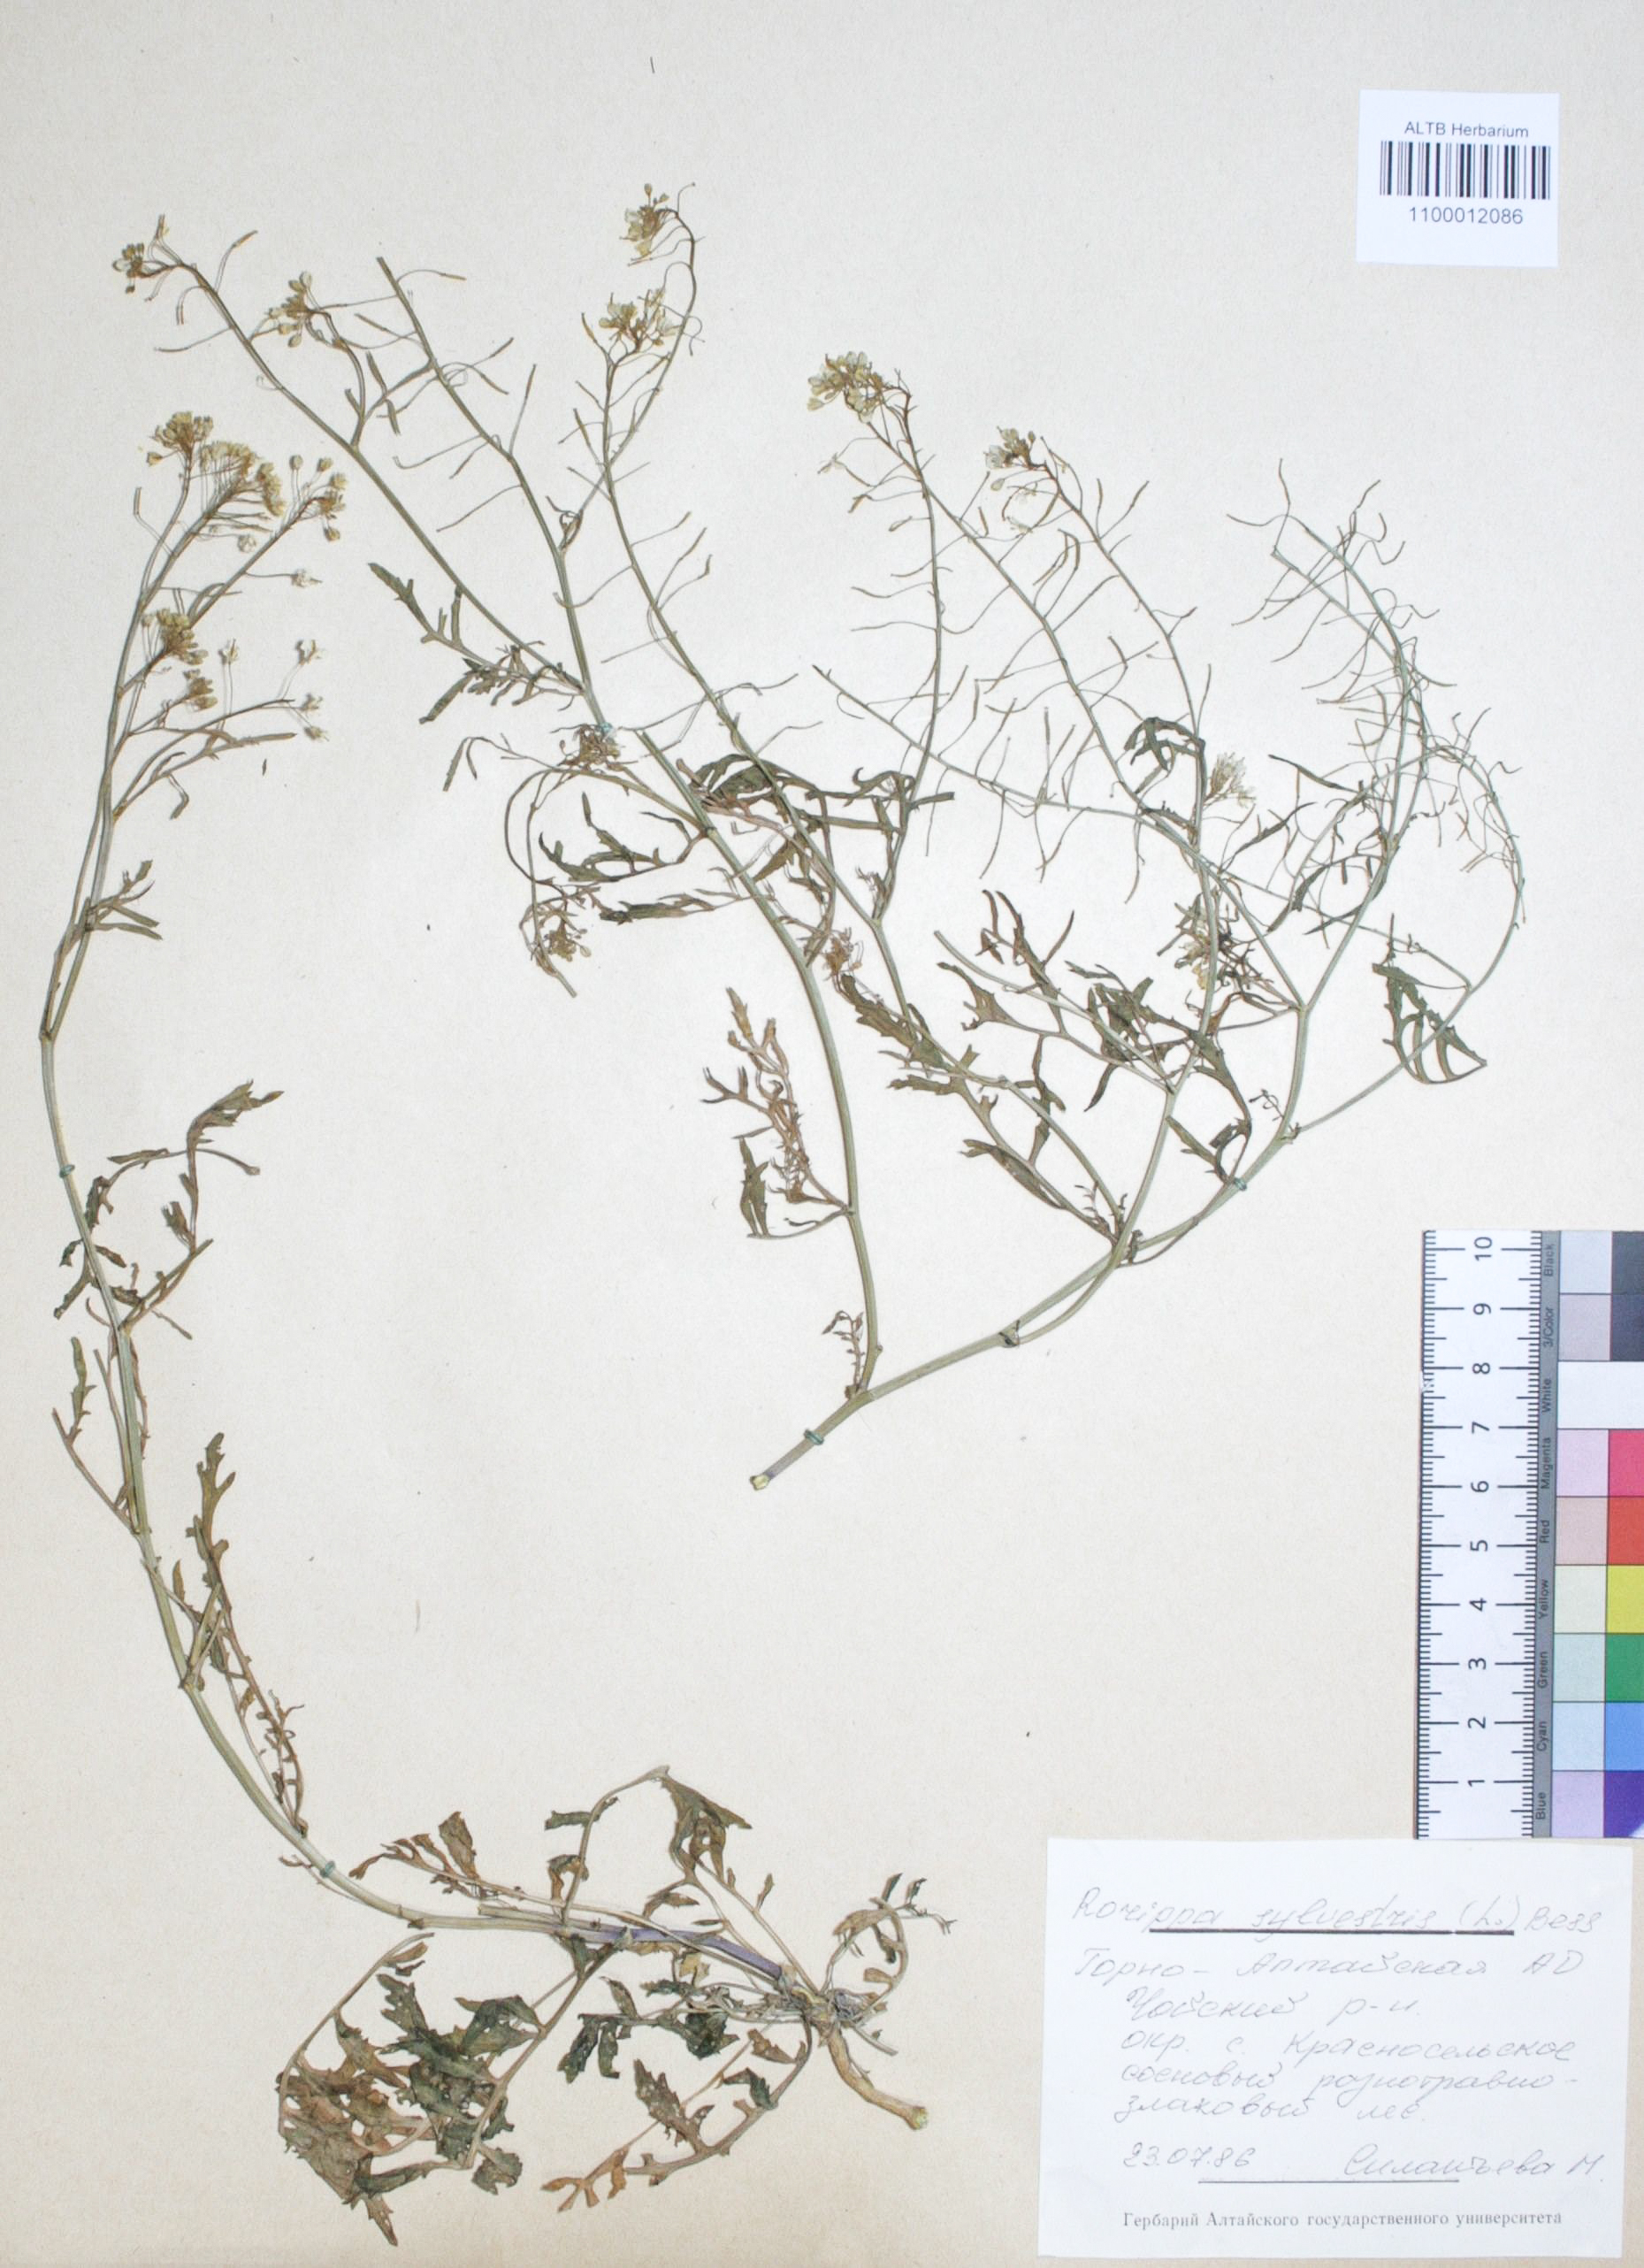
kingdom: Plantae
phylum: Tracheophyta
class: Magnoliopsida
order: Brassicales
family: Brassicaceae
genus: Rorippa
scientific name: Rorippa sylvestris
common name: Creeping yellowcress
